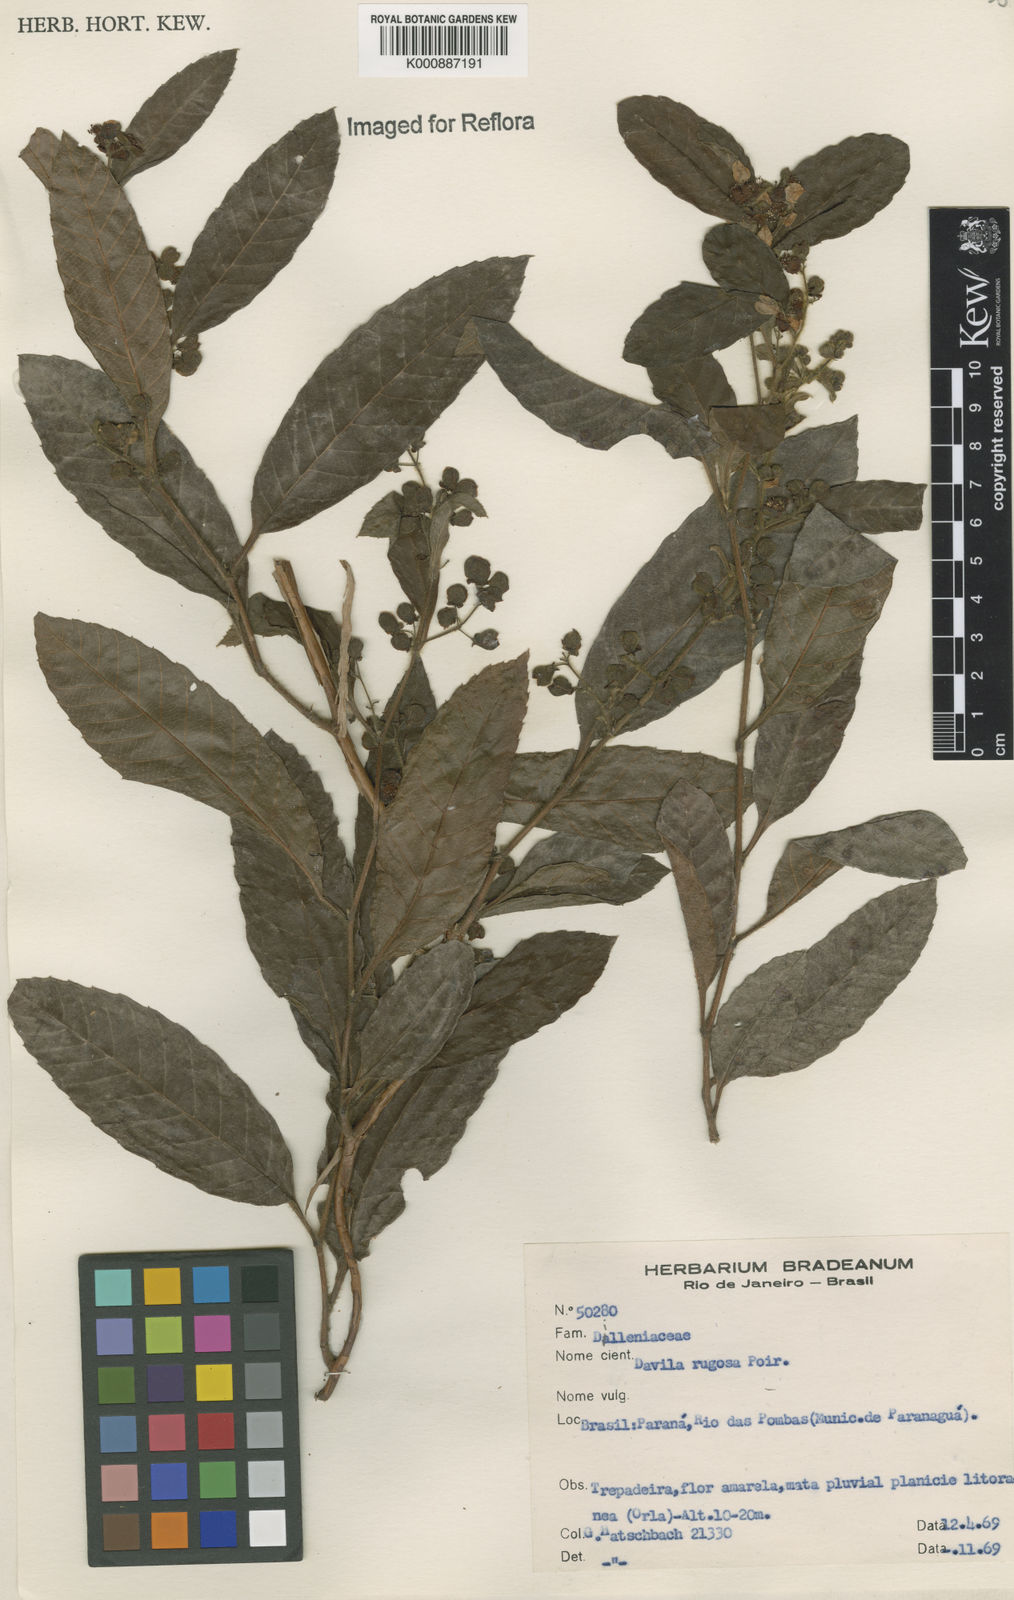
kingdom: Plantae
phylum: Tracheophyta
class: Magnoliopsida
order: Dilleniales
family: Dilleniaceae
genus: Davilla
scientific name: Davilla rugosa
